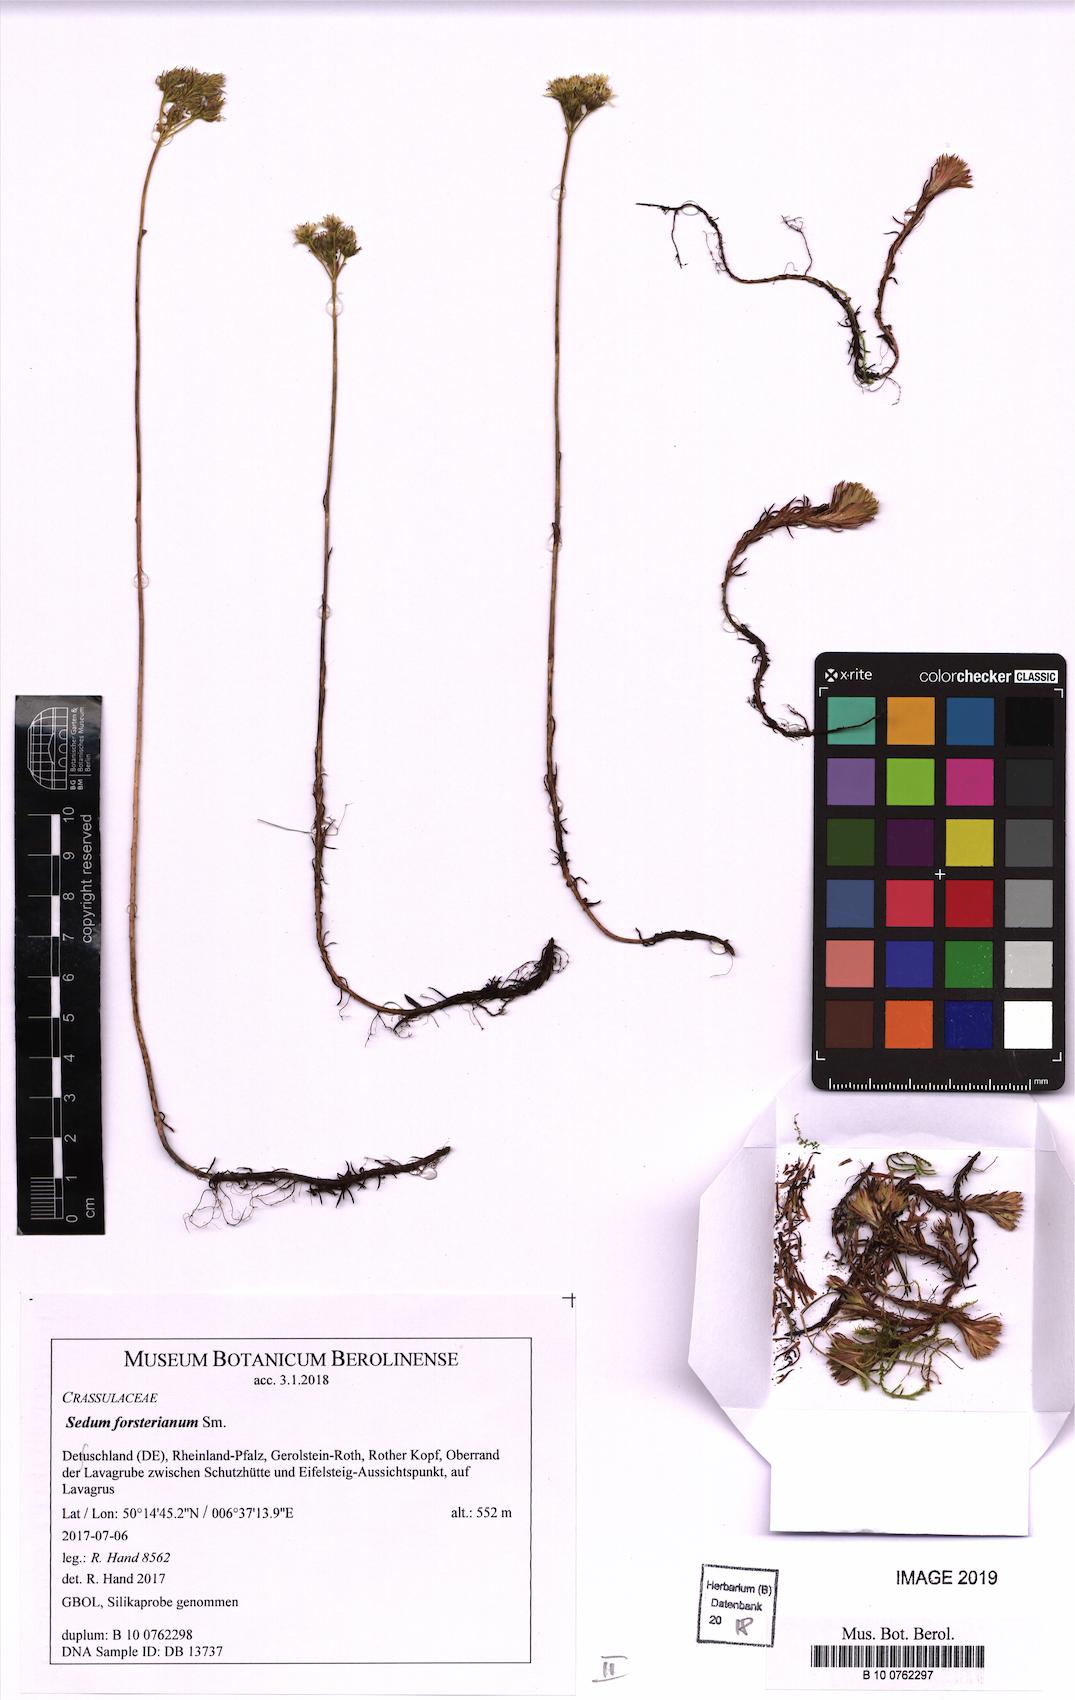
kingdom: Plantae
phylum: Tracheophyta
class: Magnoliopsida
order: Saxifragales
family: Crassulaceae
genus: Petrosedum
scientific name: Petrosedum forsterianum
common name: Forster's stonecrop
